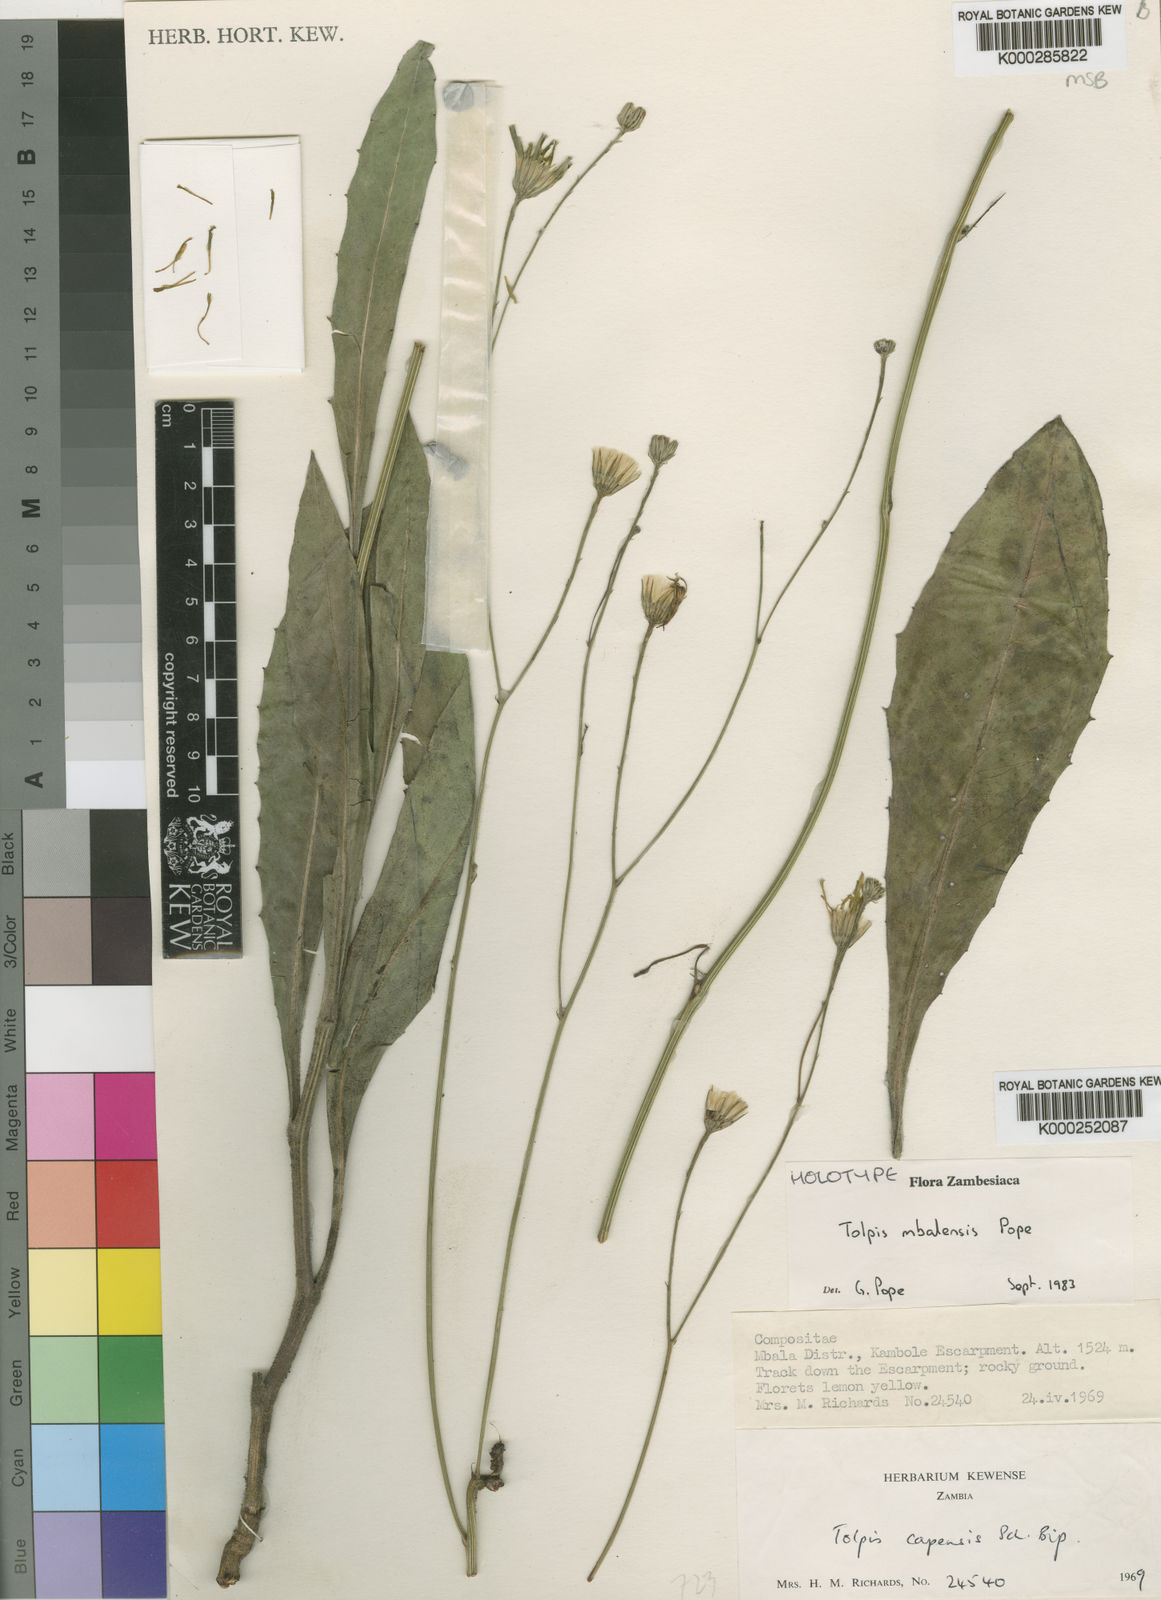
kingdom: Plantae
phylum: Tracheophyta
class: Magnoliopsida
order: Asterales
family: Asteraceae
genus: Tolpis
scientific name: Tolpis mbalensis
